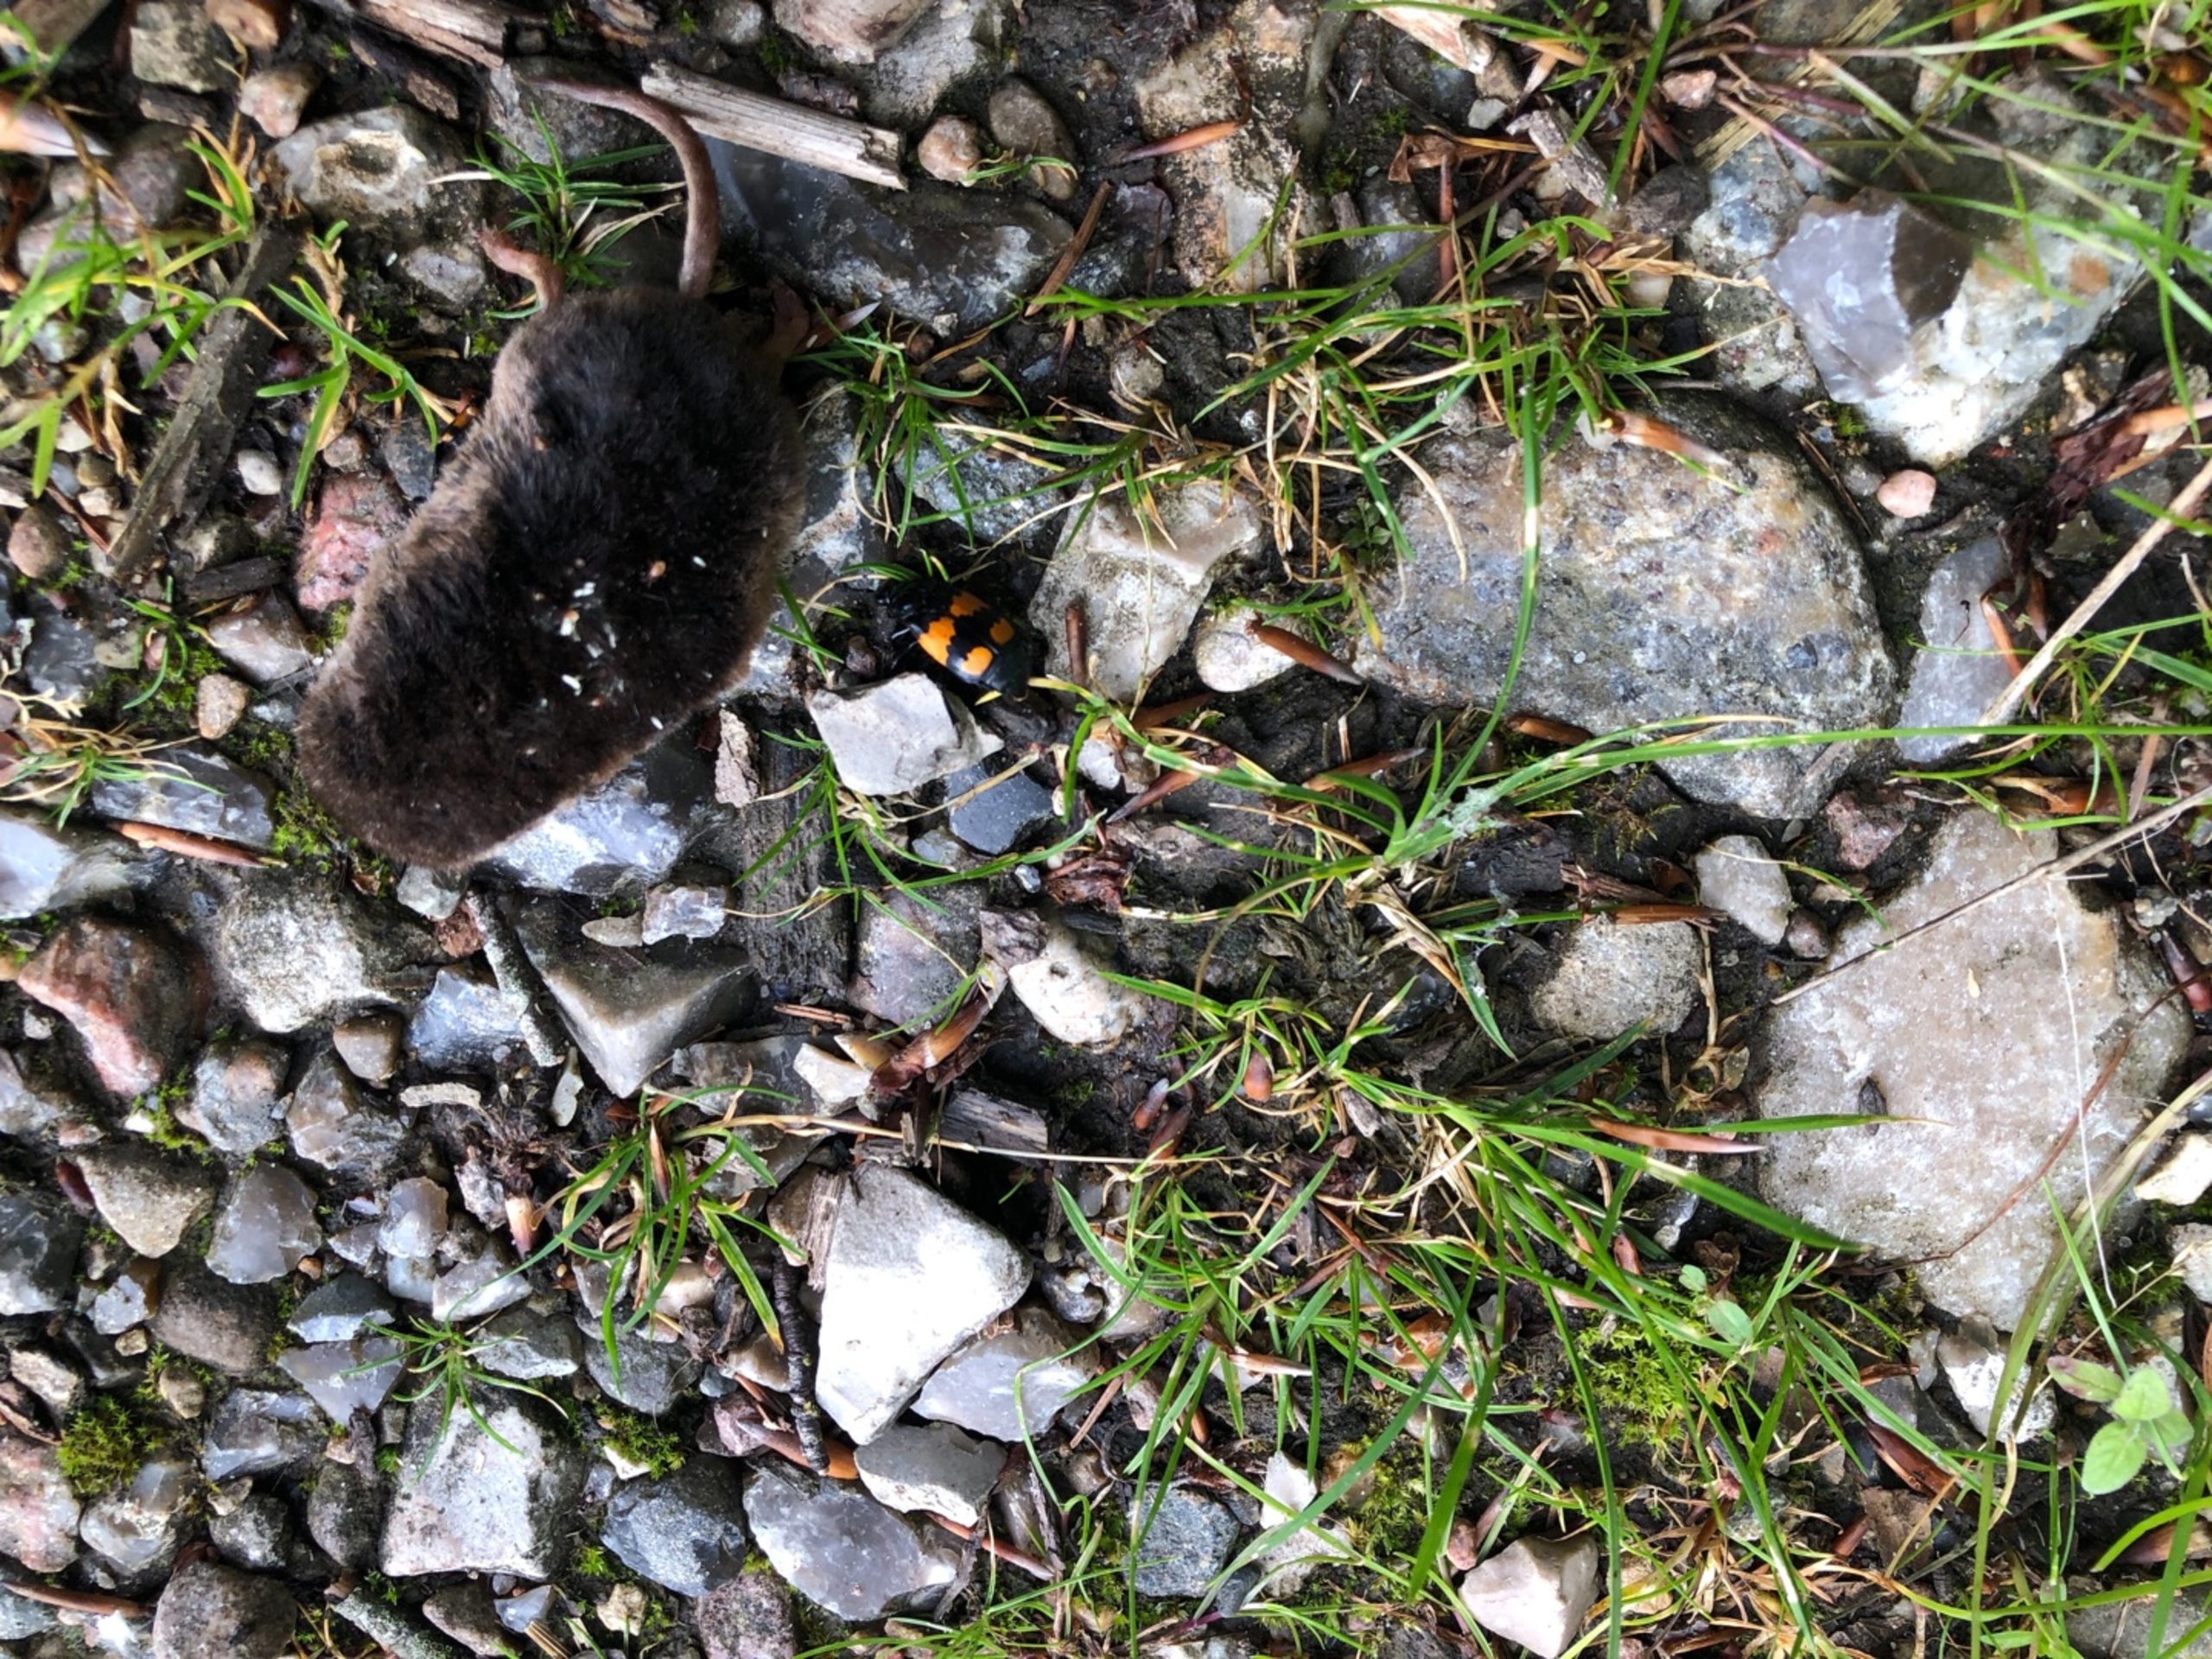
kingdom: Animalia
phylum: Arthropoda
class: Insecta
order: Coleoptera
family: Staphylinidae
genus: Nicrophorus
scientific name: Nicrophorus vespilloides
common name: Sortkøllet ådselgraver
